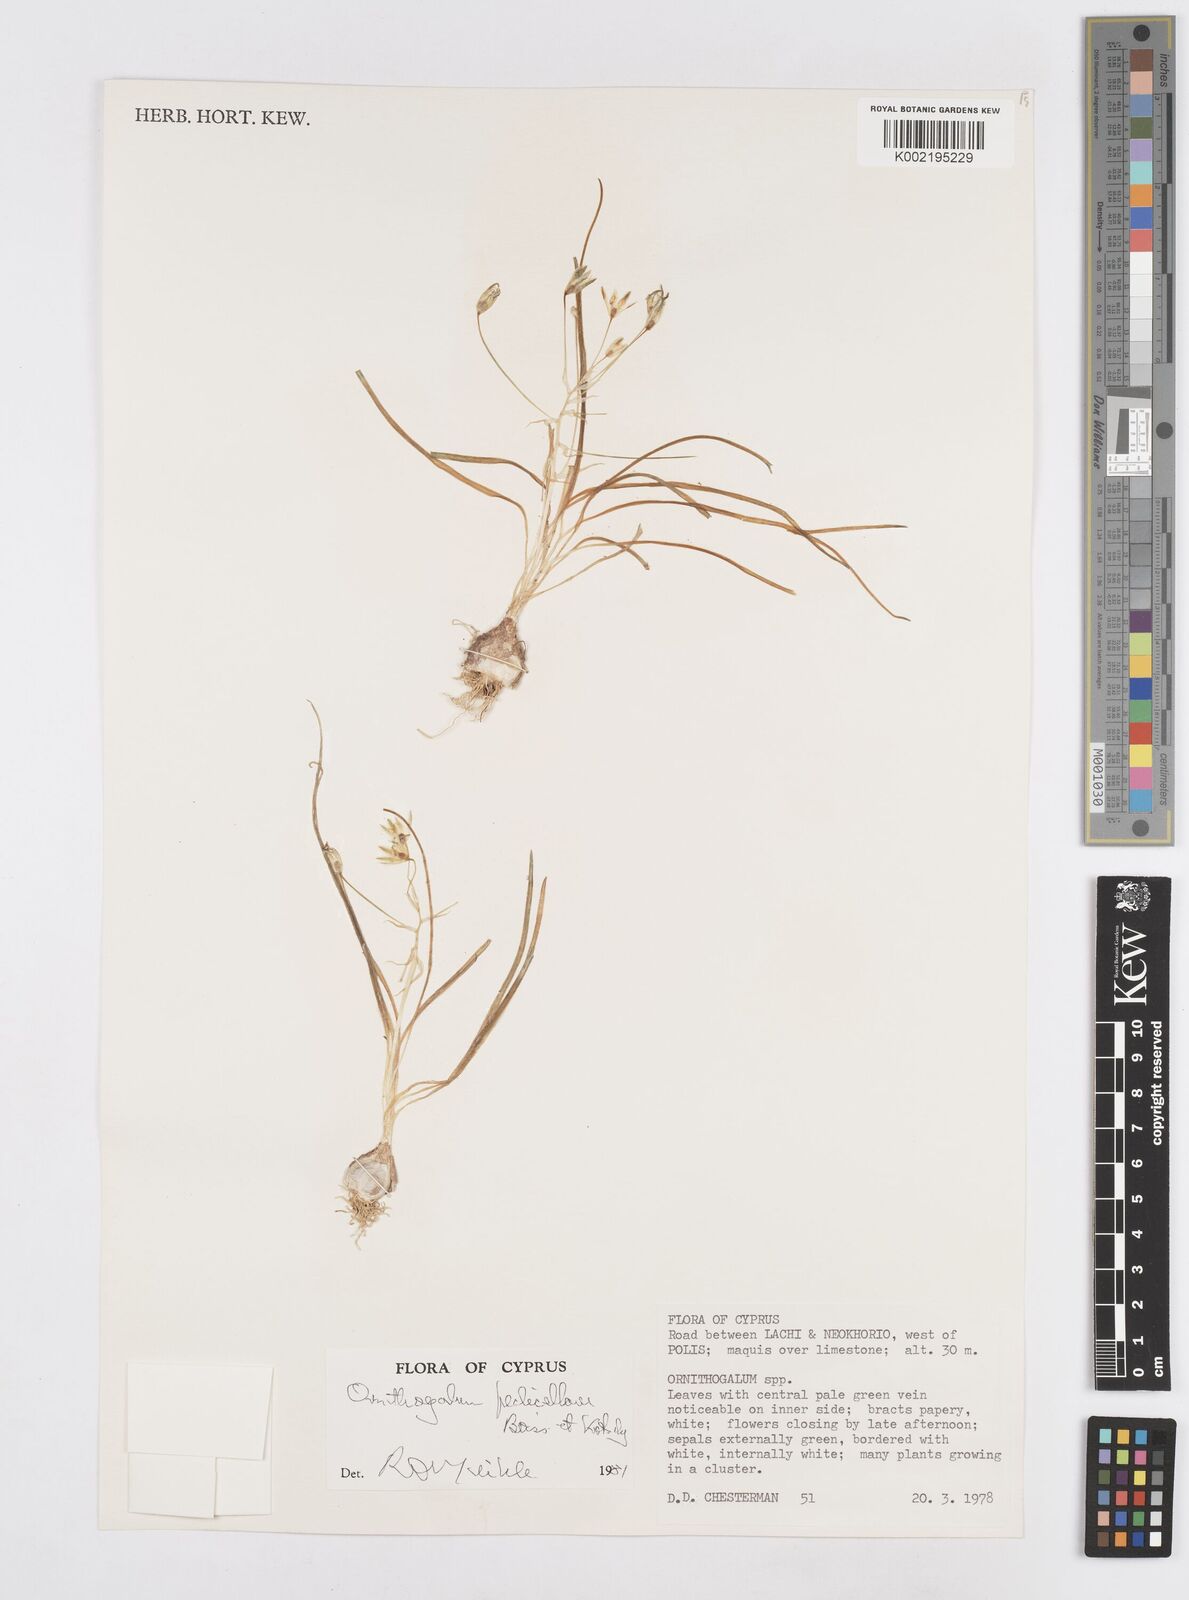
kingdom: Plantae
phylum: Tracheophyta
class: Liliopsida
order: Asparagales
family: Asparagaceae
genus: Ornithogalum
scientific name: Ornithogalum pedicellare
